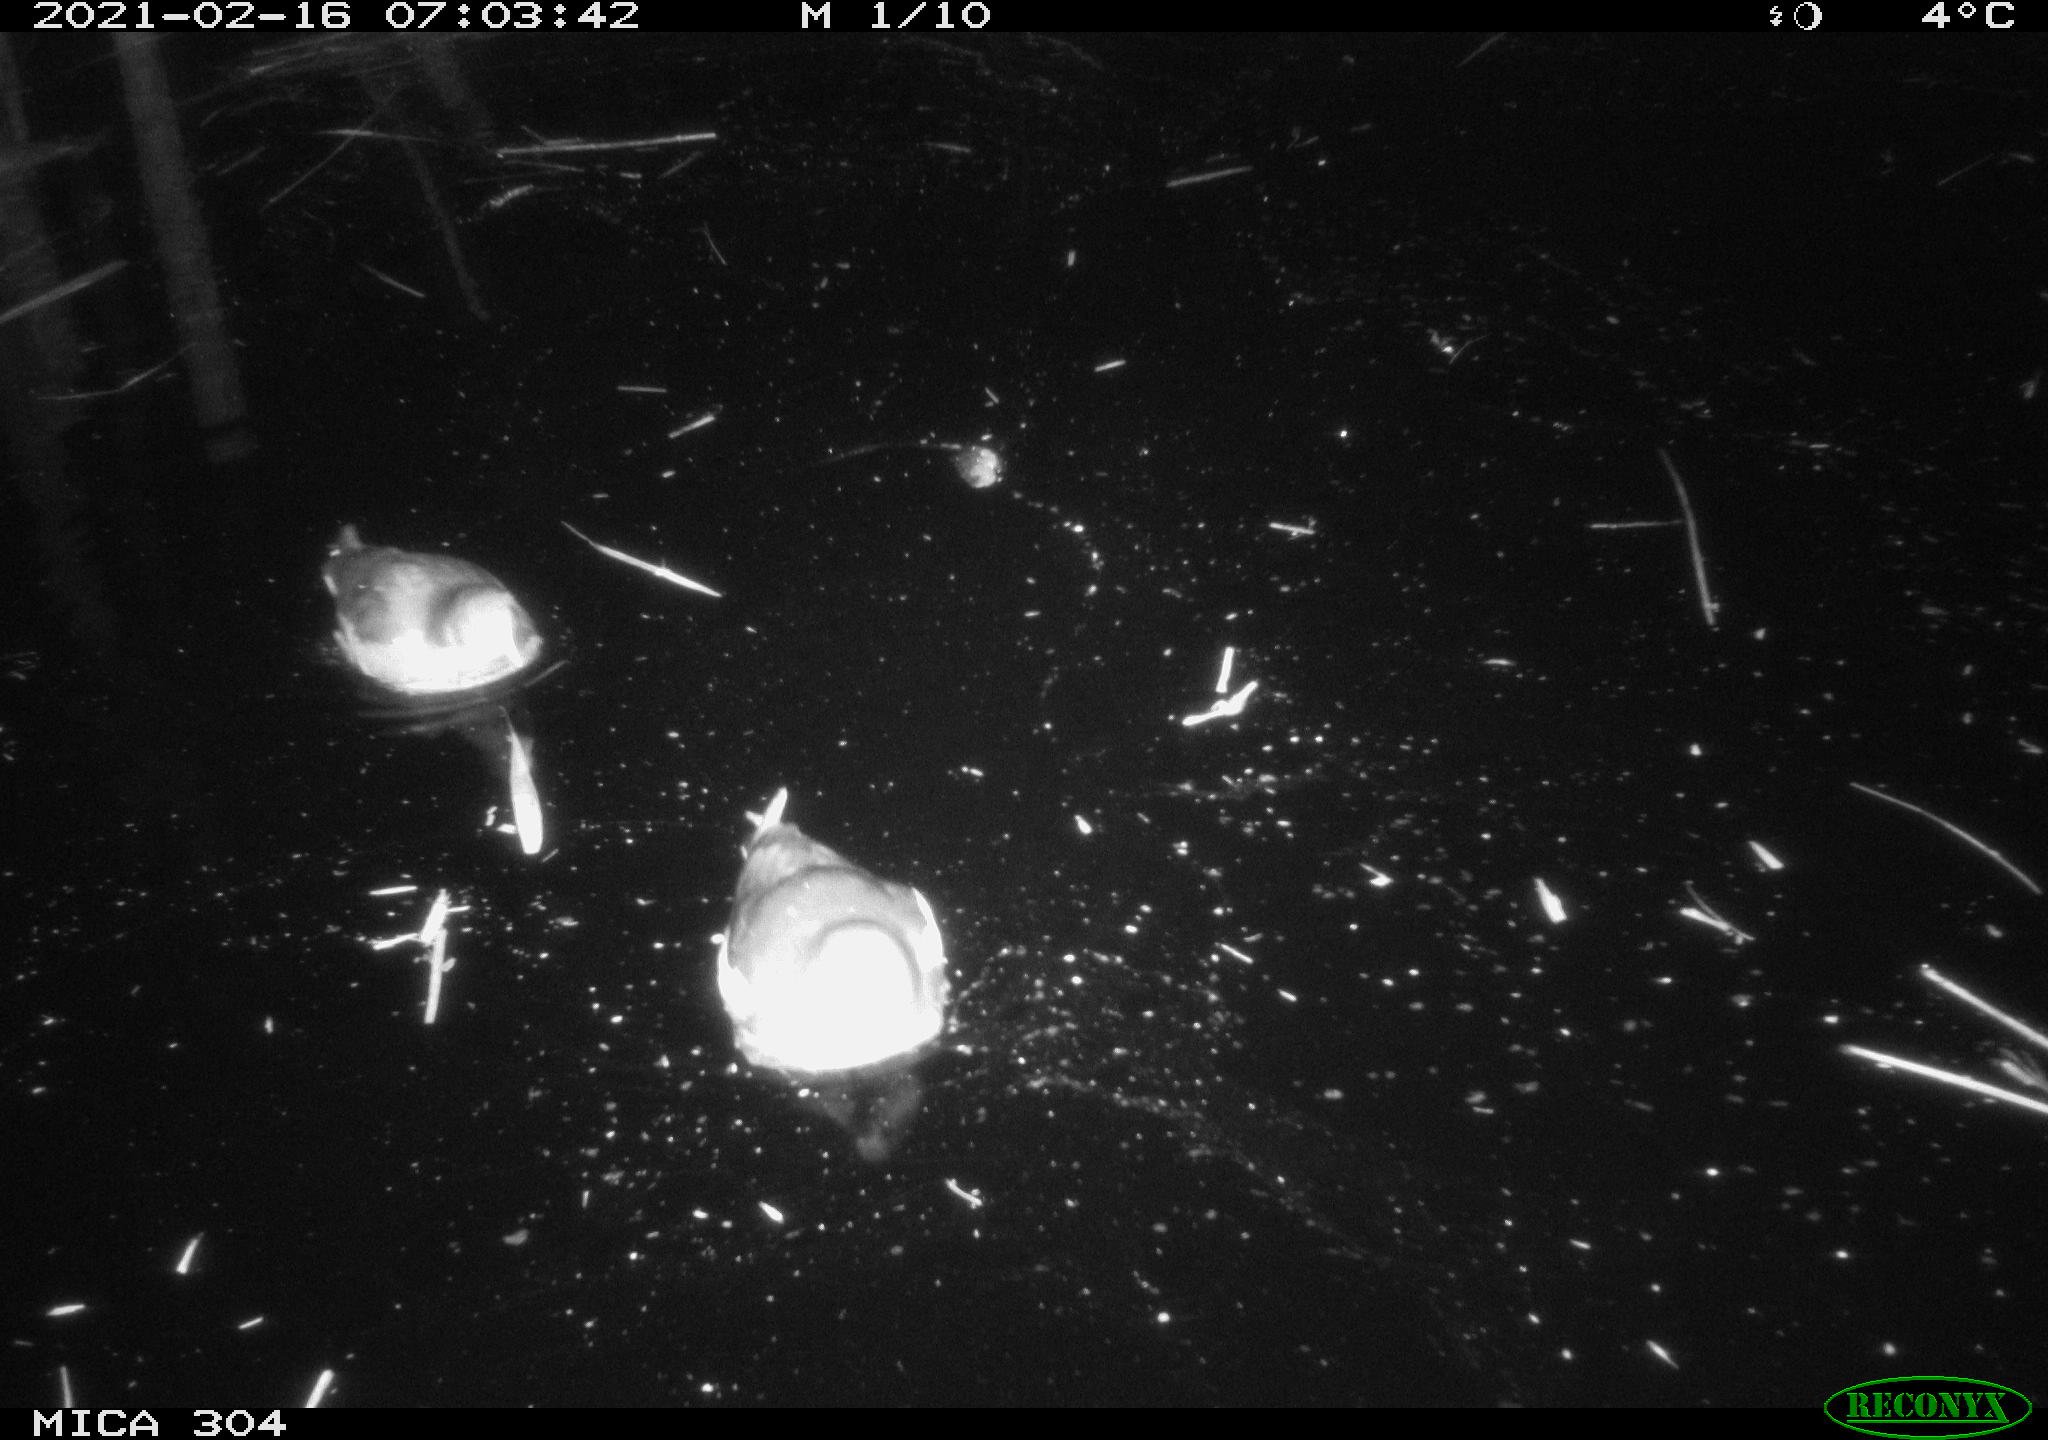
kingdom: Animalia
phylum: Chordata
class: Aves
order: Gruiformes
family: Rallidae
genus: Gallinula
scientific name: Gallinula chloropus
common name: Common moorhen
